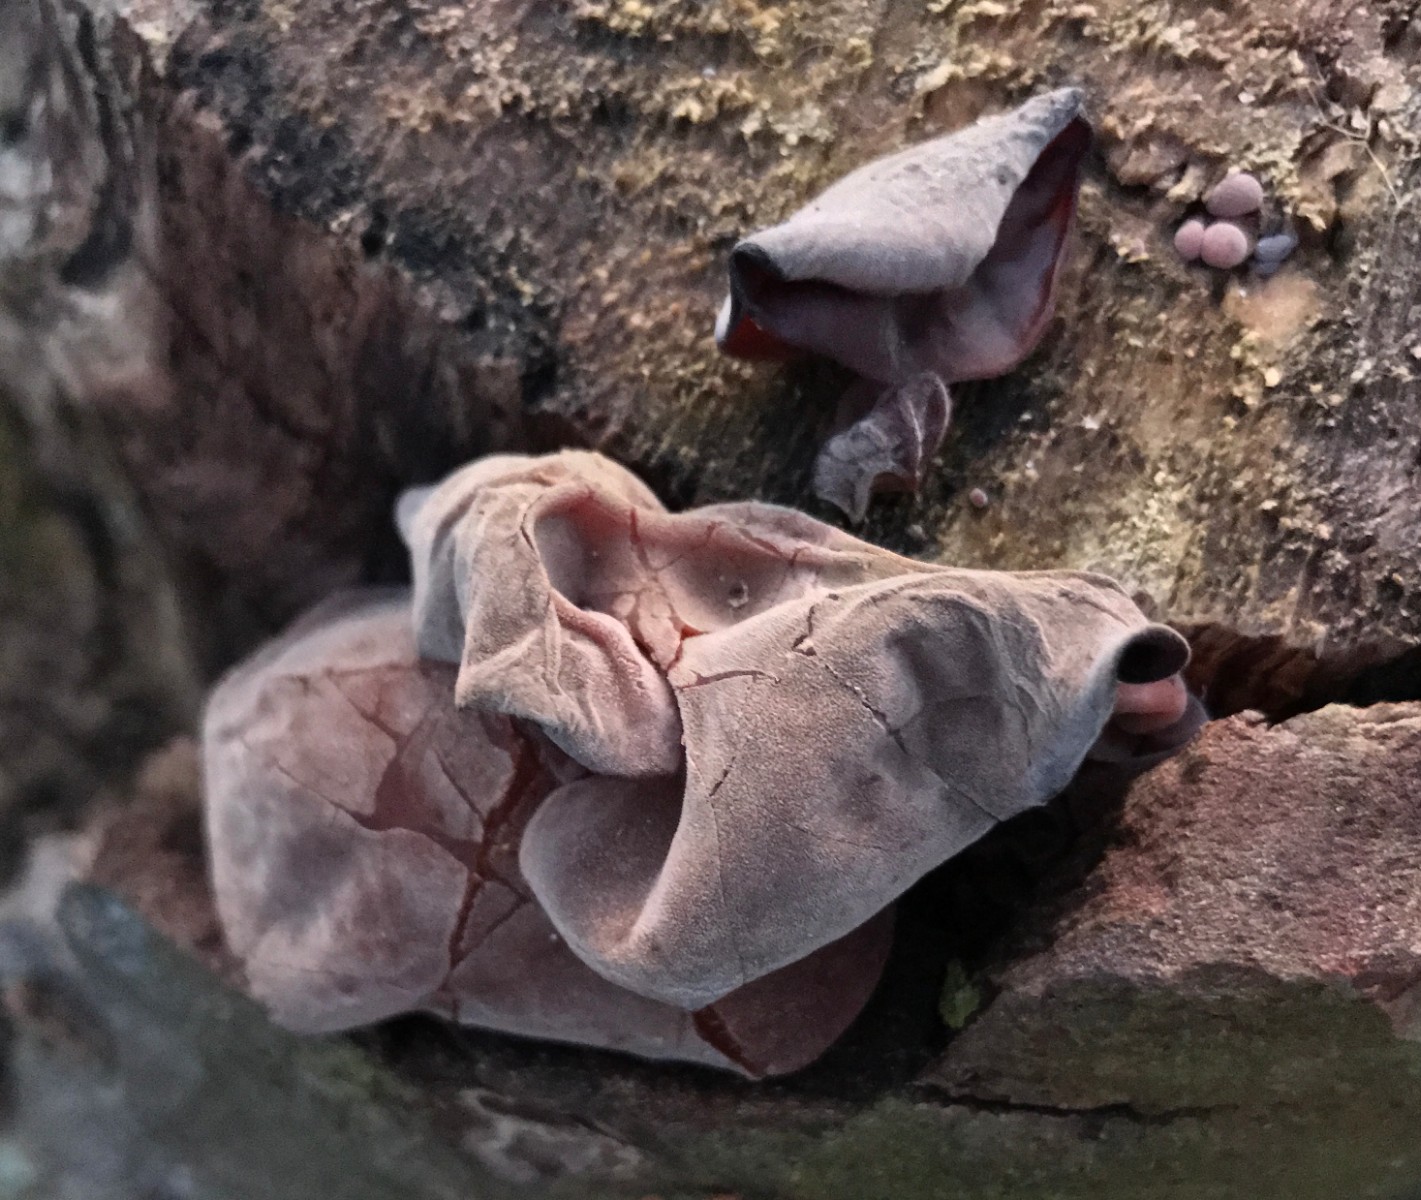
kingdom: Fungi
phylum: Basidiomycota
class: Agaricomycetes
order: Auriculariales
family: Auriculariaceae
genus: Auricularia
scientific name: Auricularia auricula-judae
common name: almindelig judasøre
